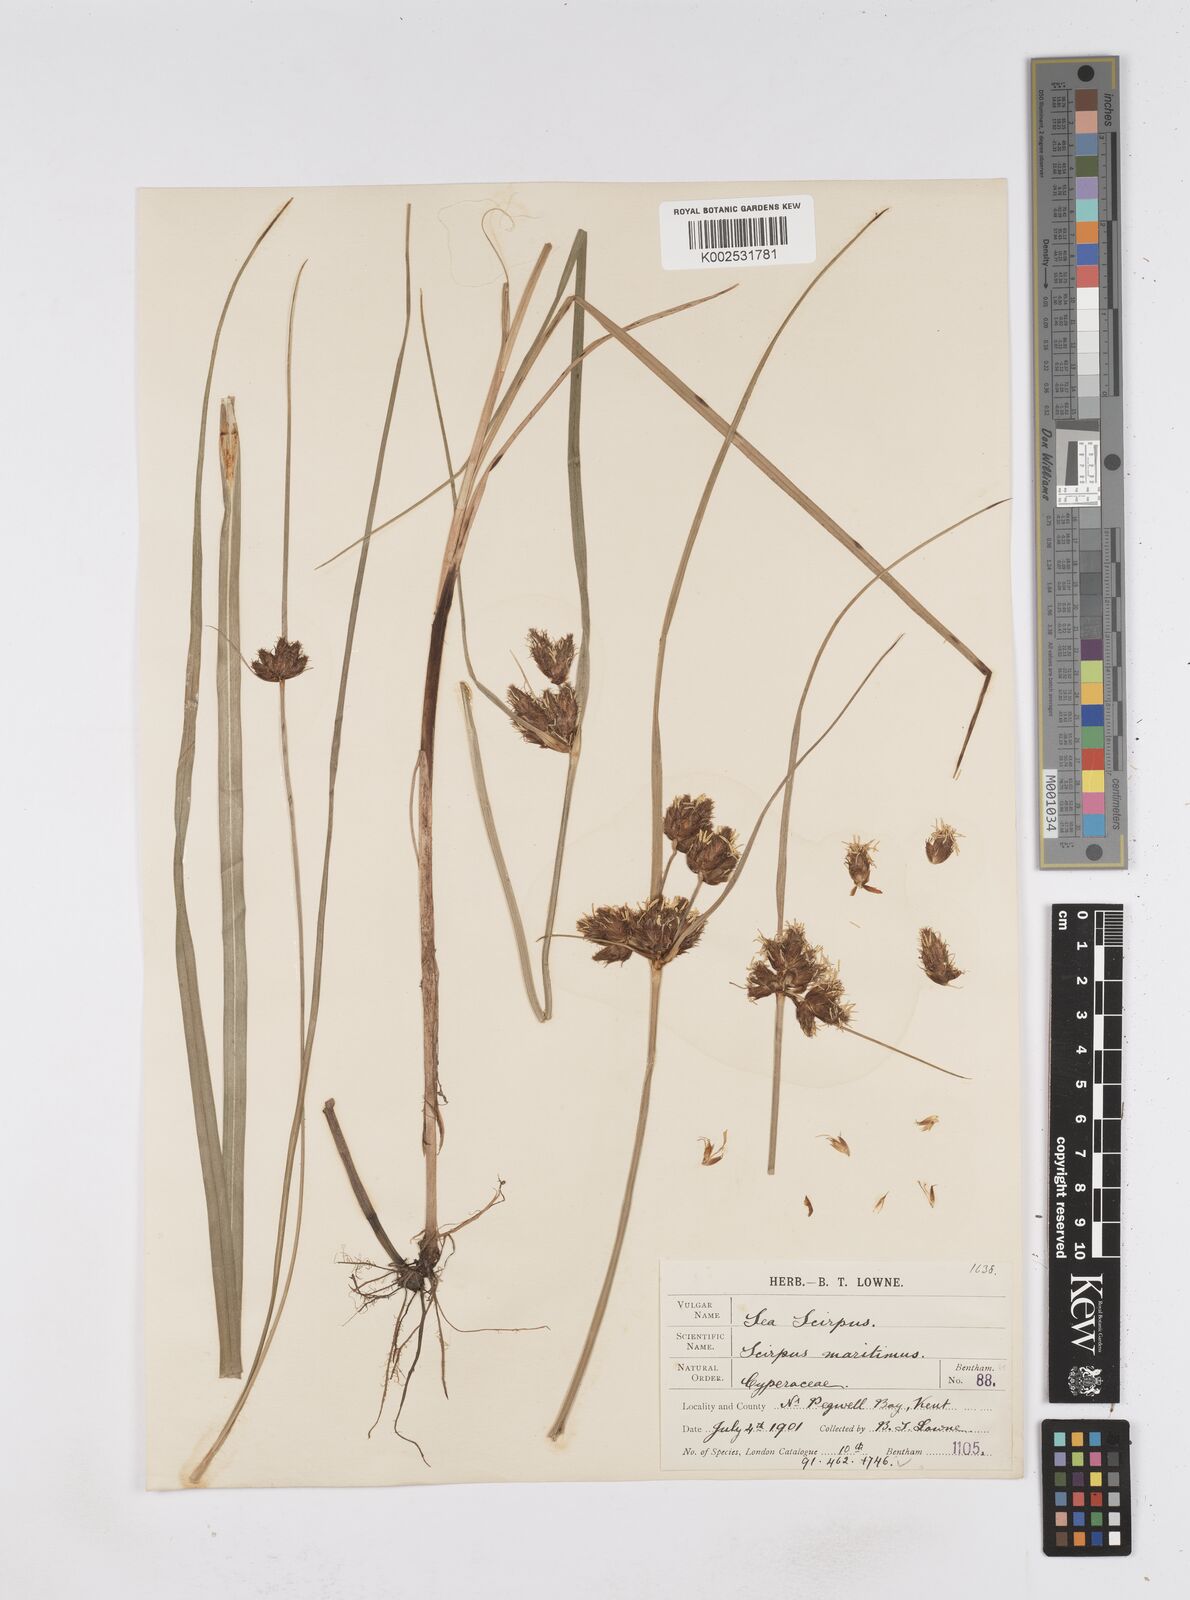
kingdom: Plantae
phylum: Tracheophyta
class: Liliopsida
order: Poales
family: Cyperaceae
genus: Bolboschoenus
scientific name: Bolboschoenus maritimus
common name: Sea club-rush
